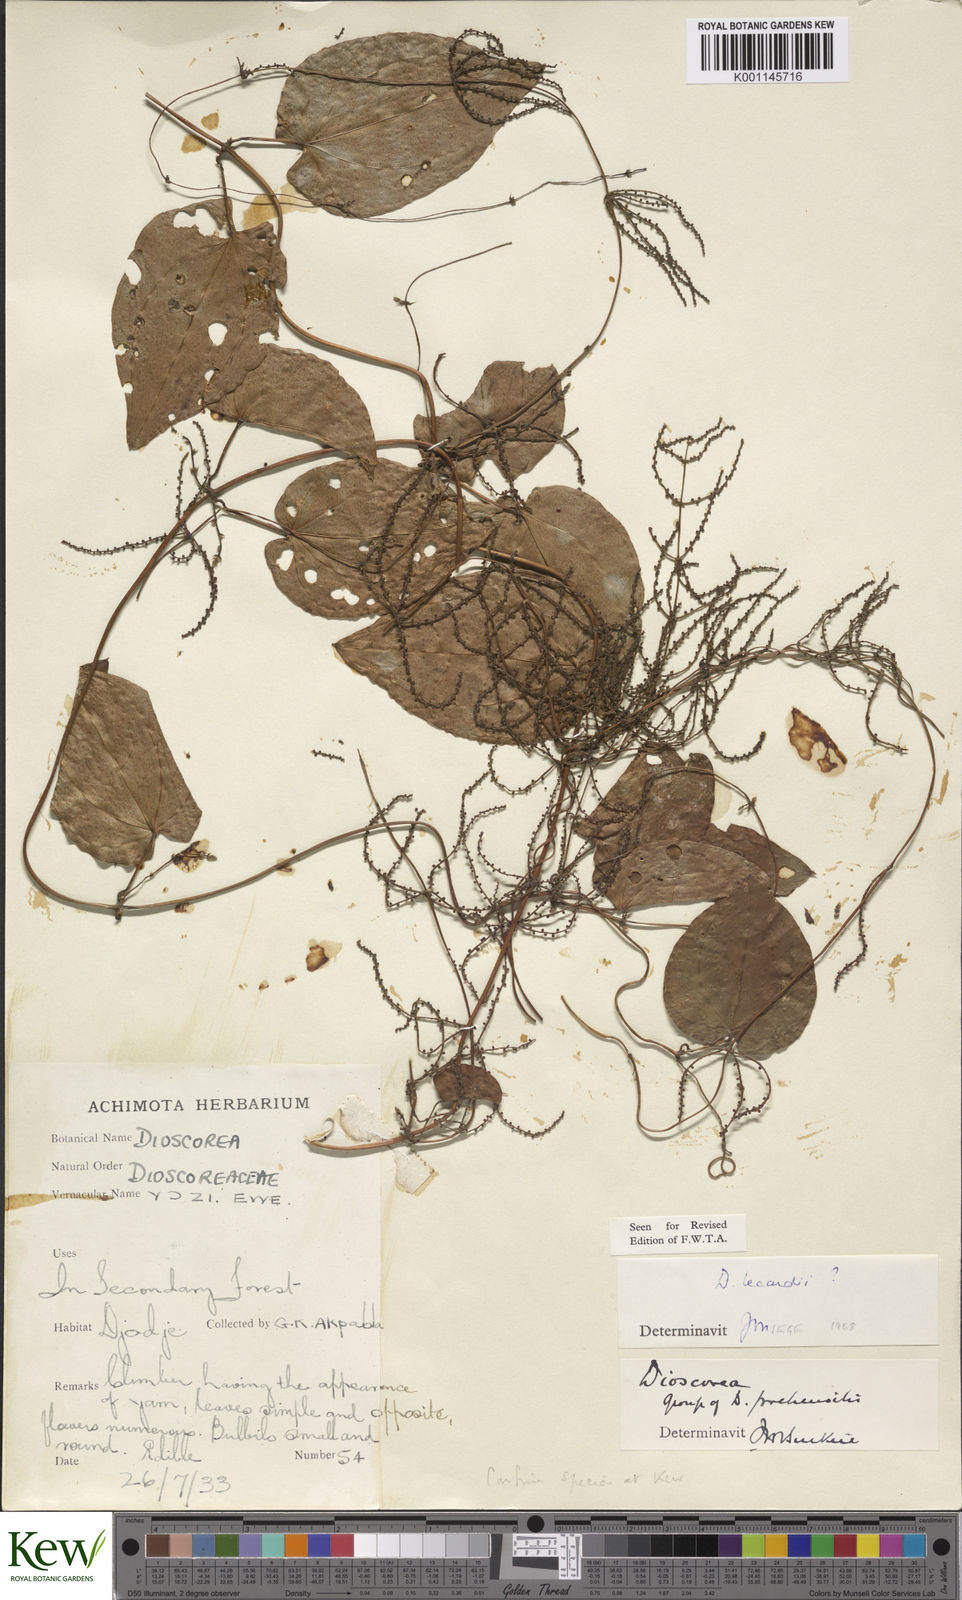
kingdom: Plantae
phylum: Tracheophyta
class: Liliopsida
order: Dioscoreales
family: Dioscoreaceae
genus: Dioscorea
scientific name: Dioscorea sagittifolia
